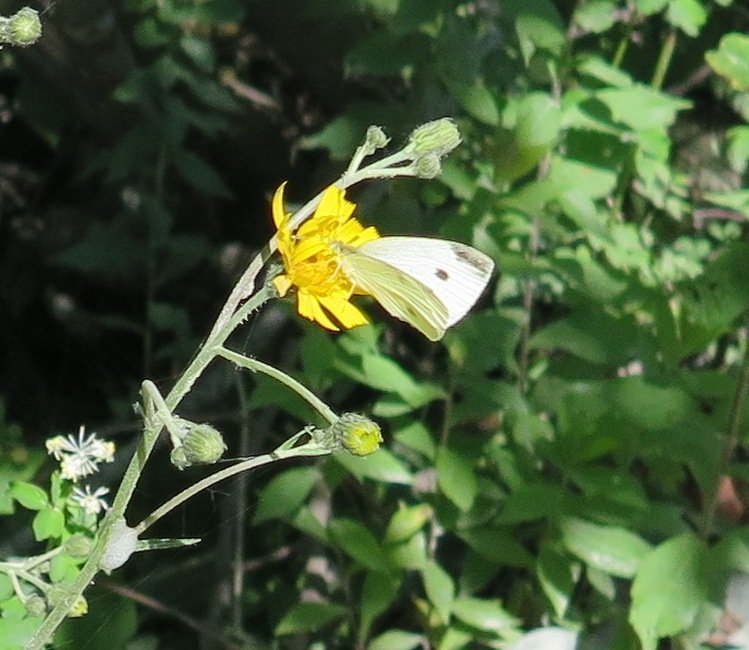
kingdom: Animalia
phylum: Arthropoda
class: Insecta
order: Lepidoptera
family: Pieridae
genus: Pieris
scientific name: Pieris rapae
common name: Cabbage White
